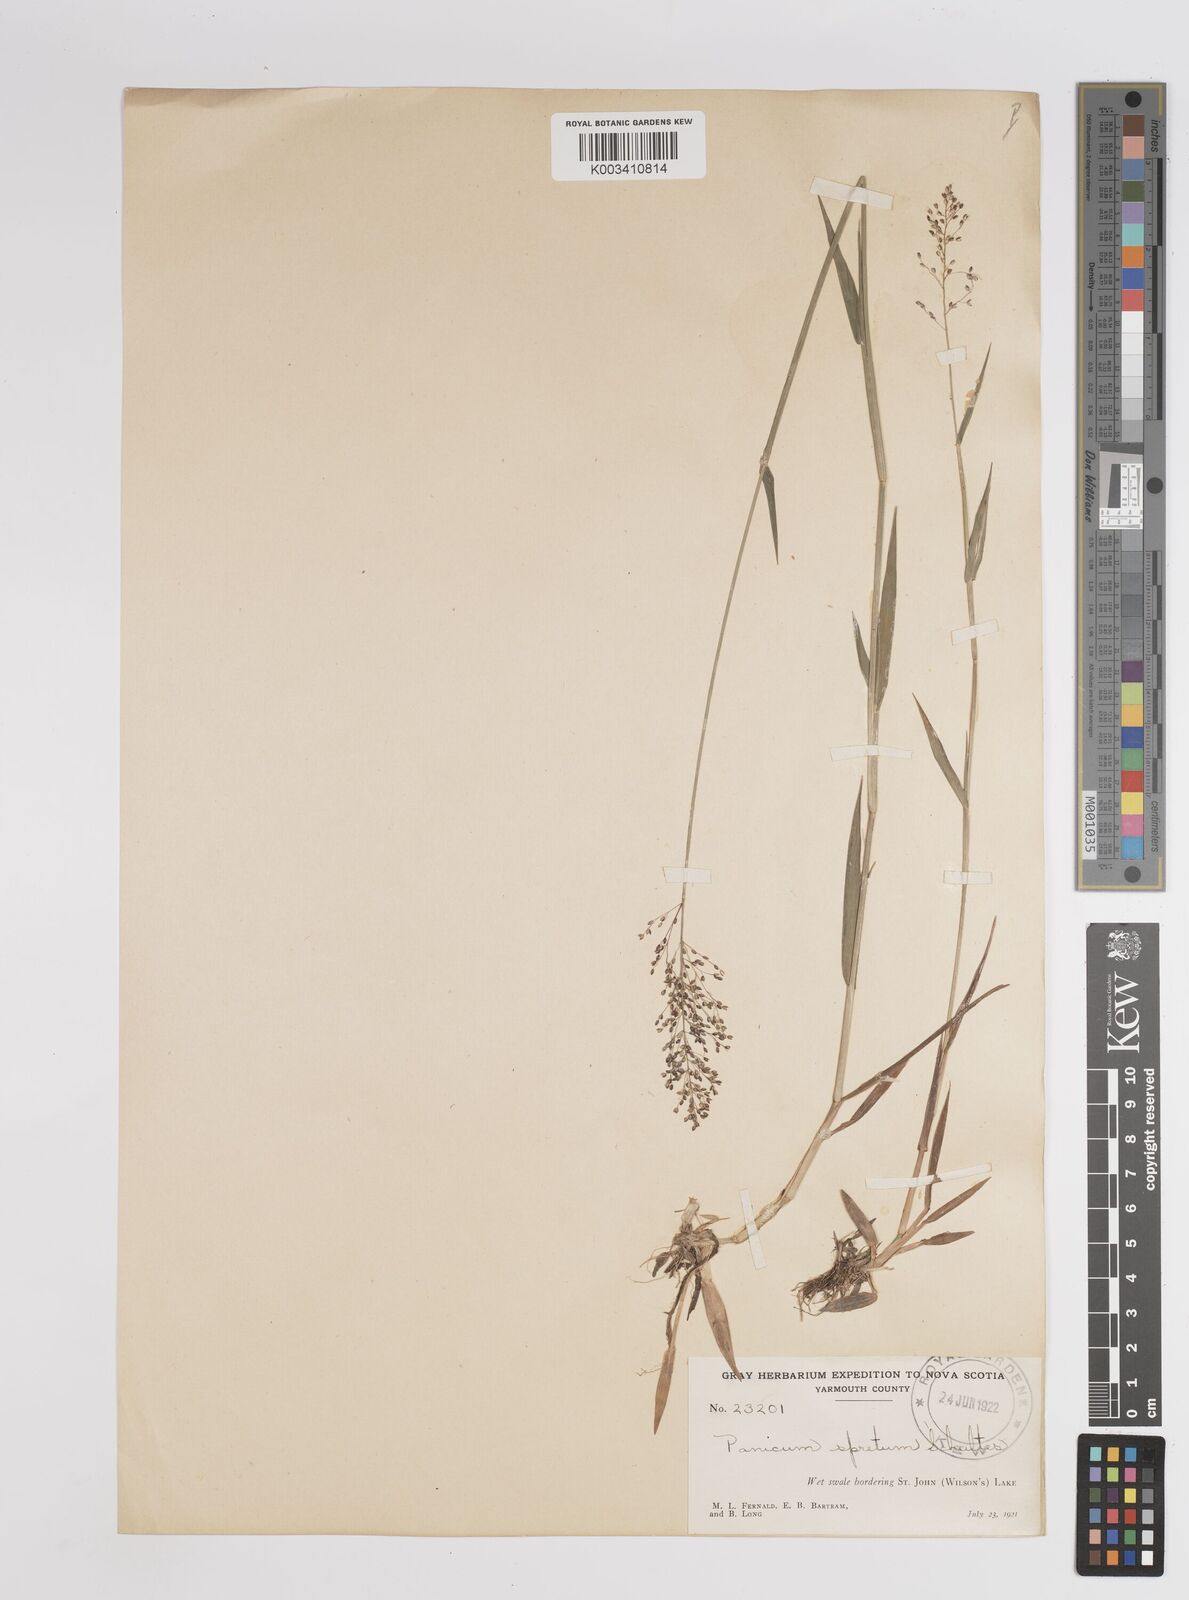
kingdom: Plantae
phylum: Tracheophyta
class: Liliopsida
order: Poales
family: Poaceae
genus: Dichanthelium
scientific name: Dichanthelium acuminatum
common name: Hairy panic grass
